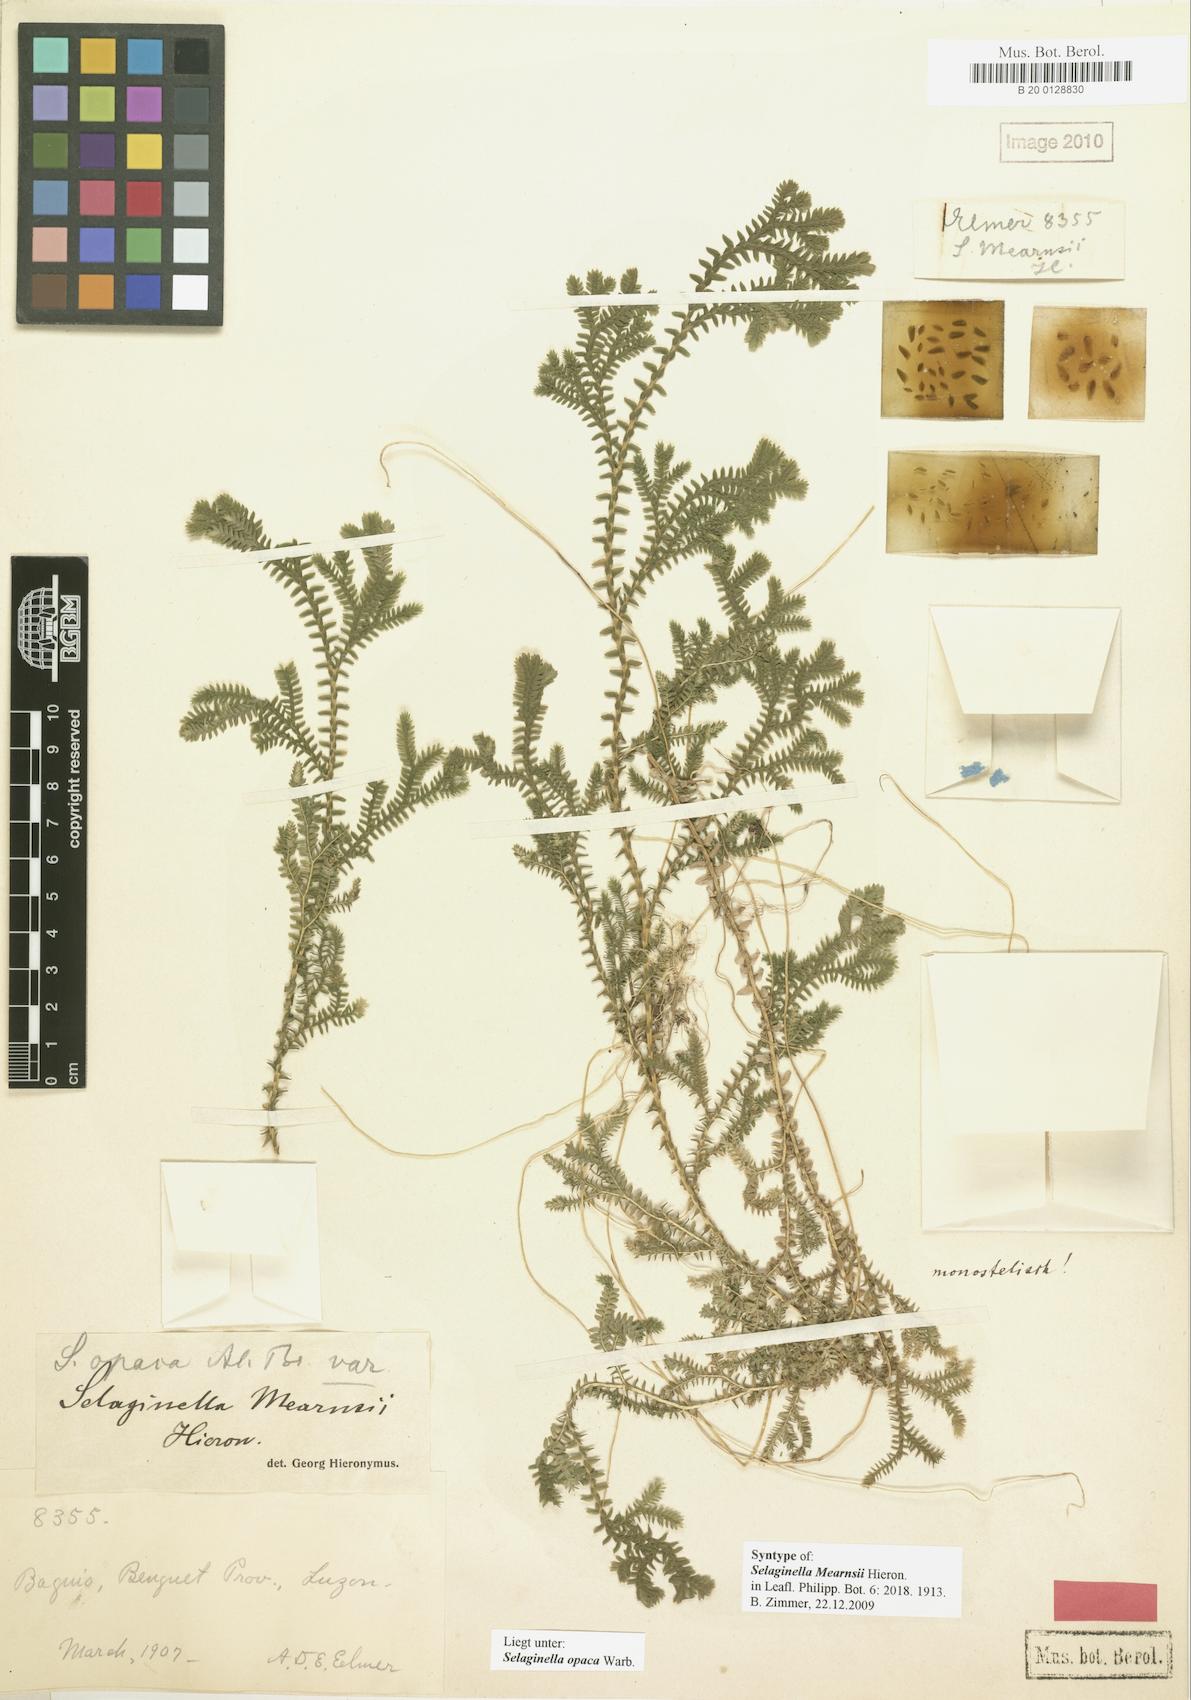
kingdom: Plantae
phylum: Tracheophyta
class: Lycopodiopsida
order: Selaginellales
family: Selaginellaceae
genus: Selaginella
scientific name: Selaginella opaca
